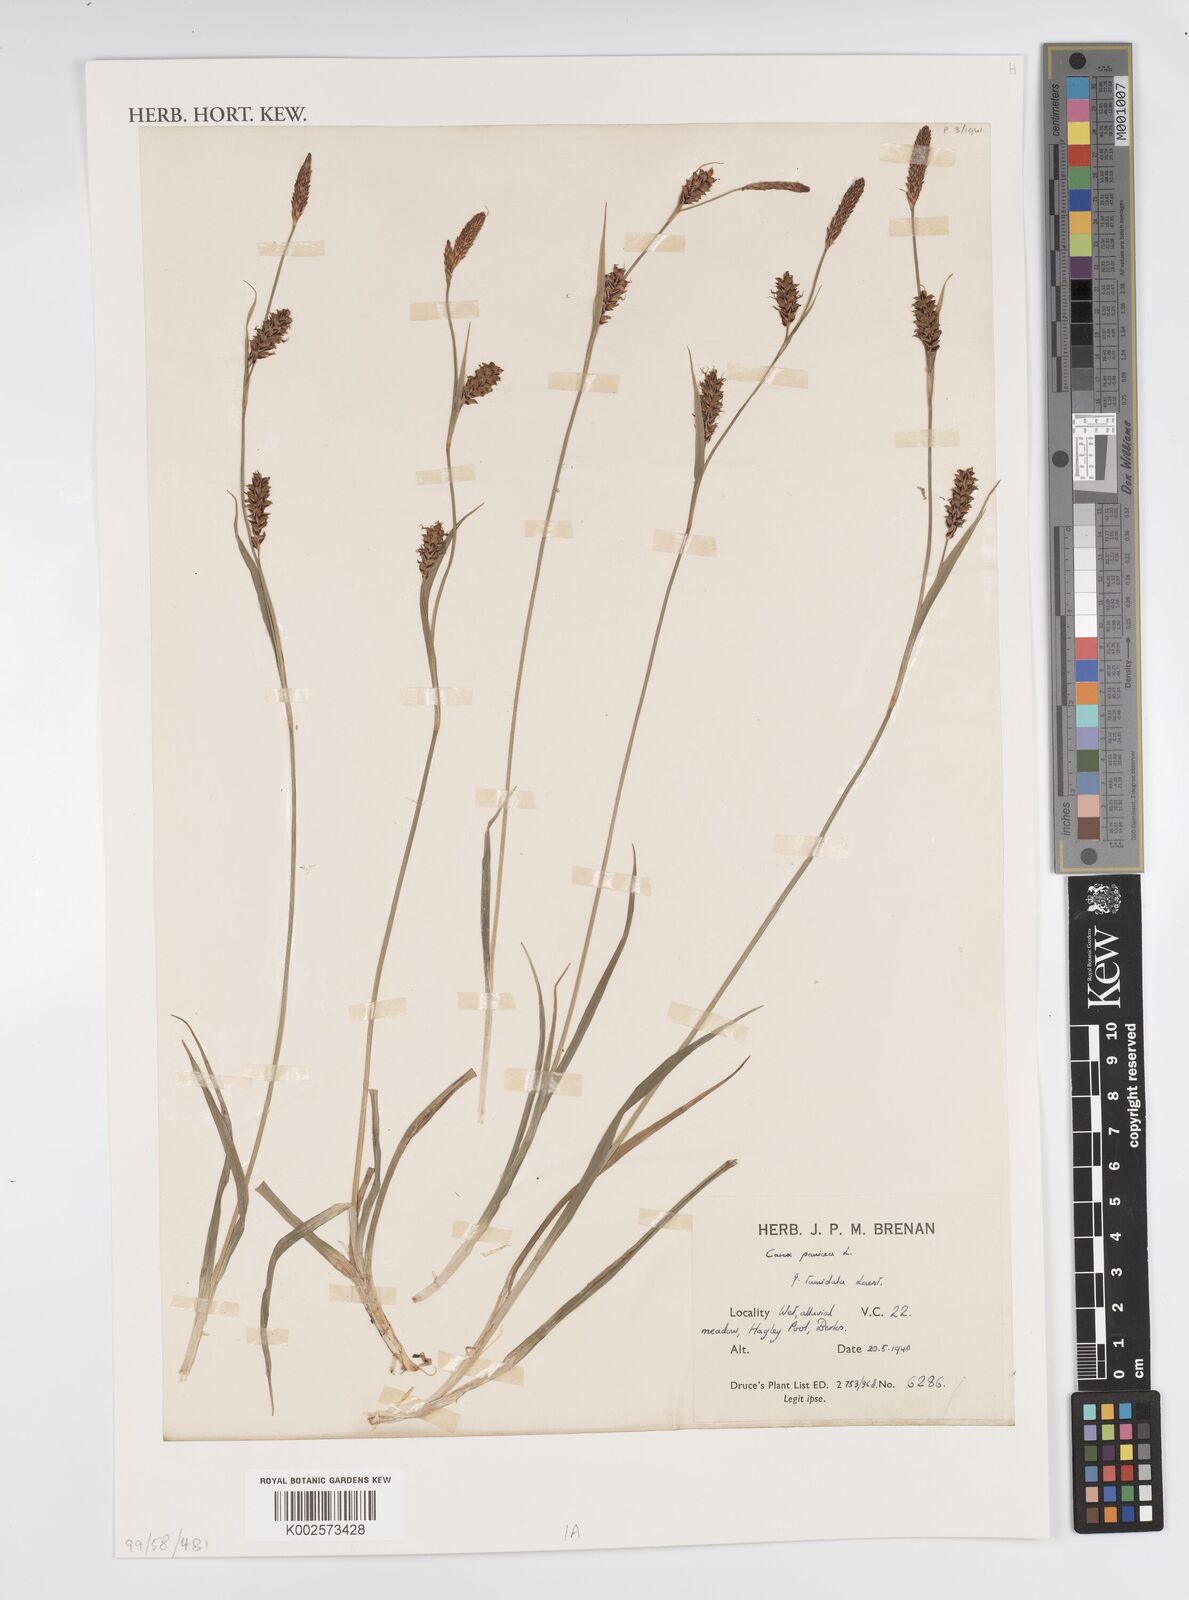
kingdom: Plantae
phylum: Tracheophyta
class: Liliopsida
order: Poales
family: Cyperaceae
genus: Carex
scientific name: Carex panicea
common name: Carnation sedge
